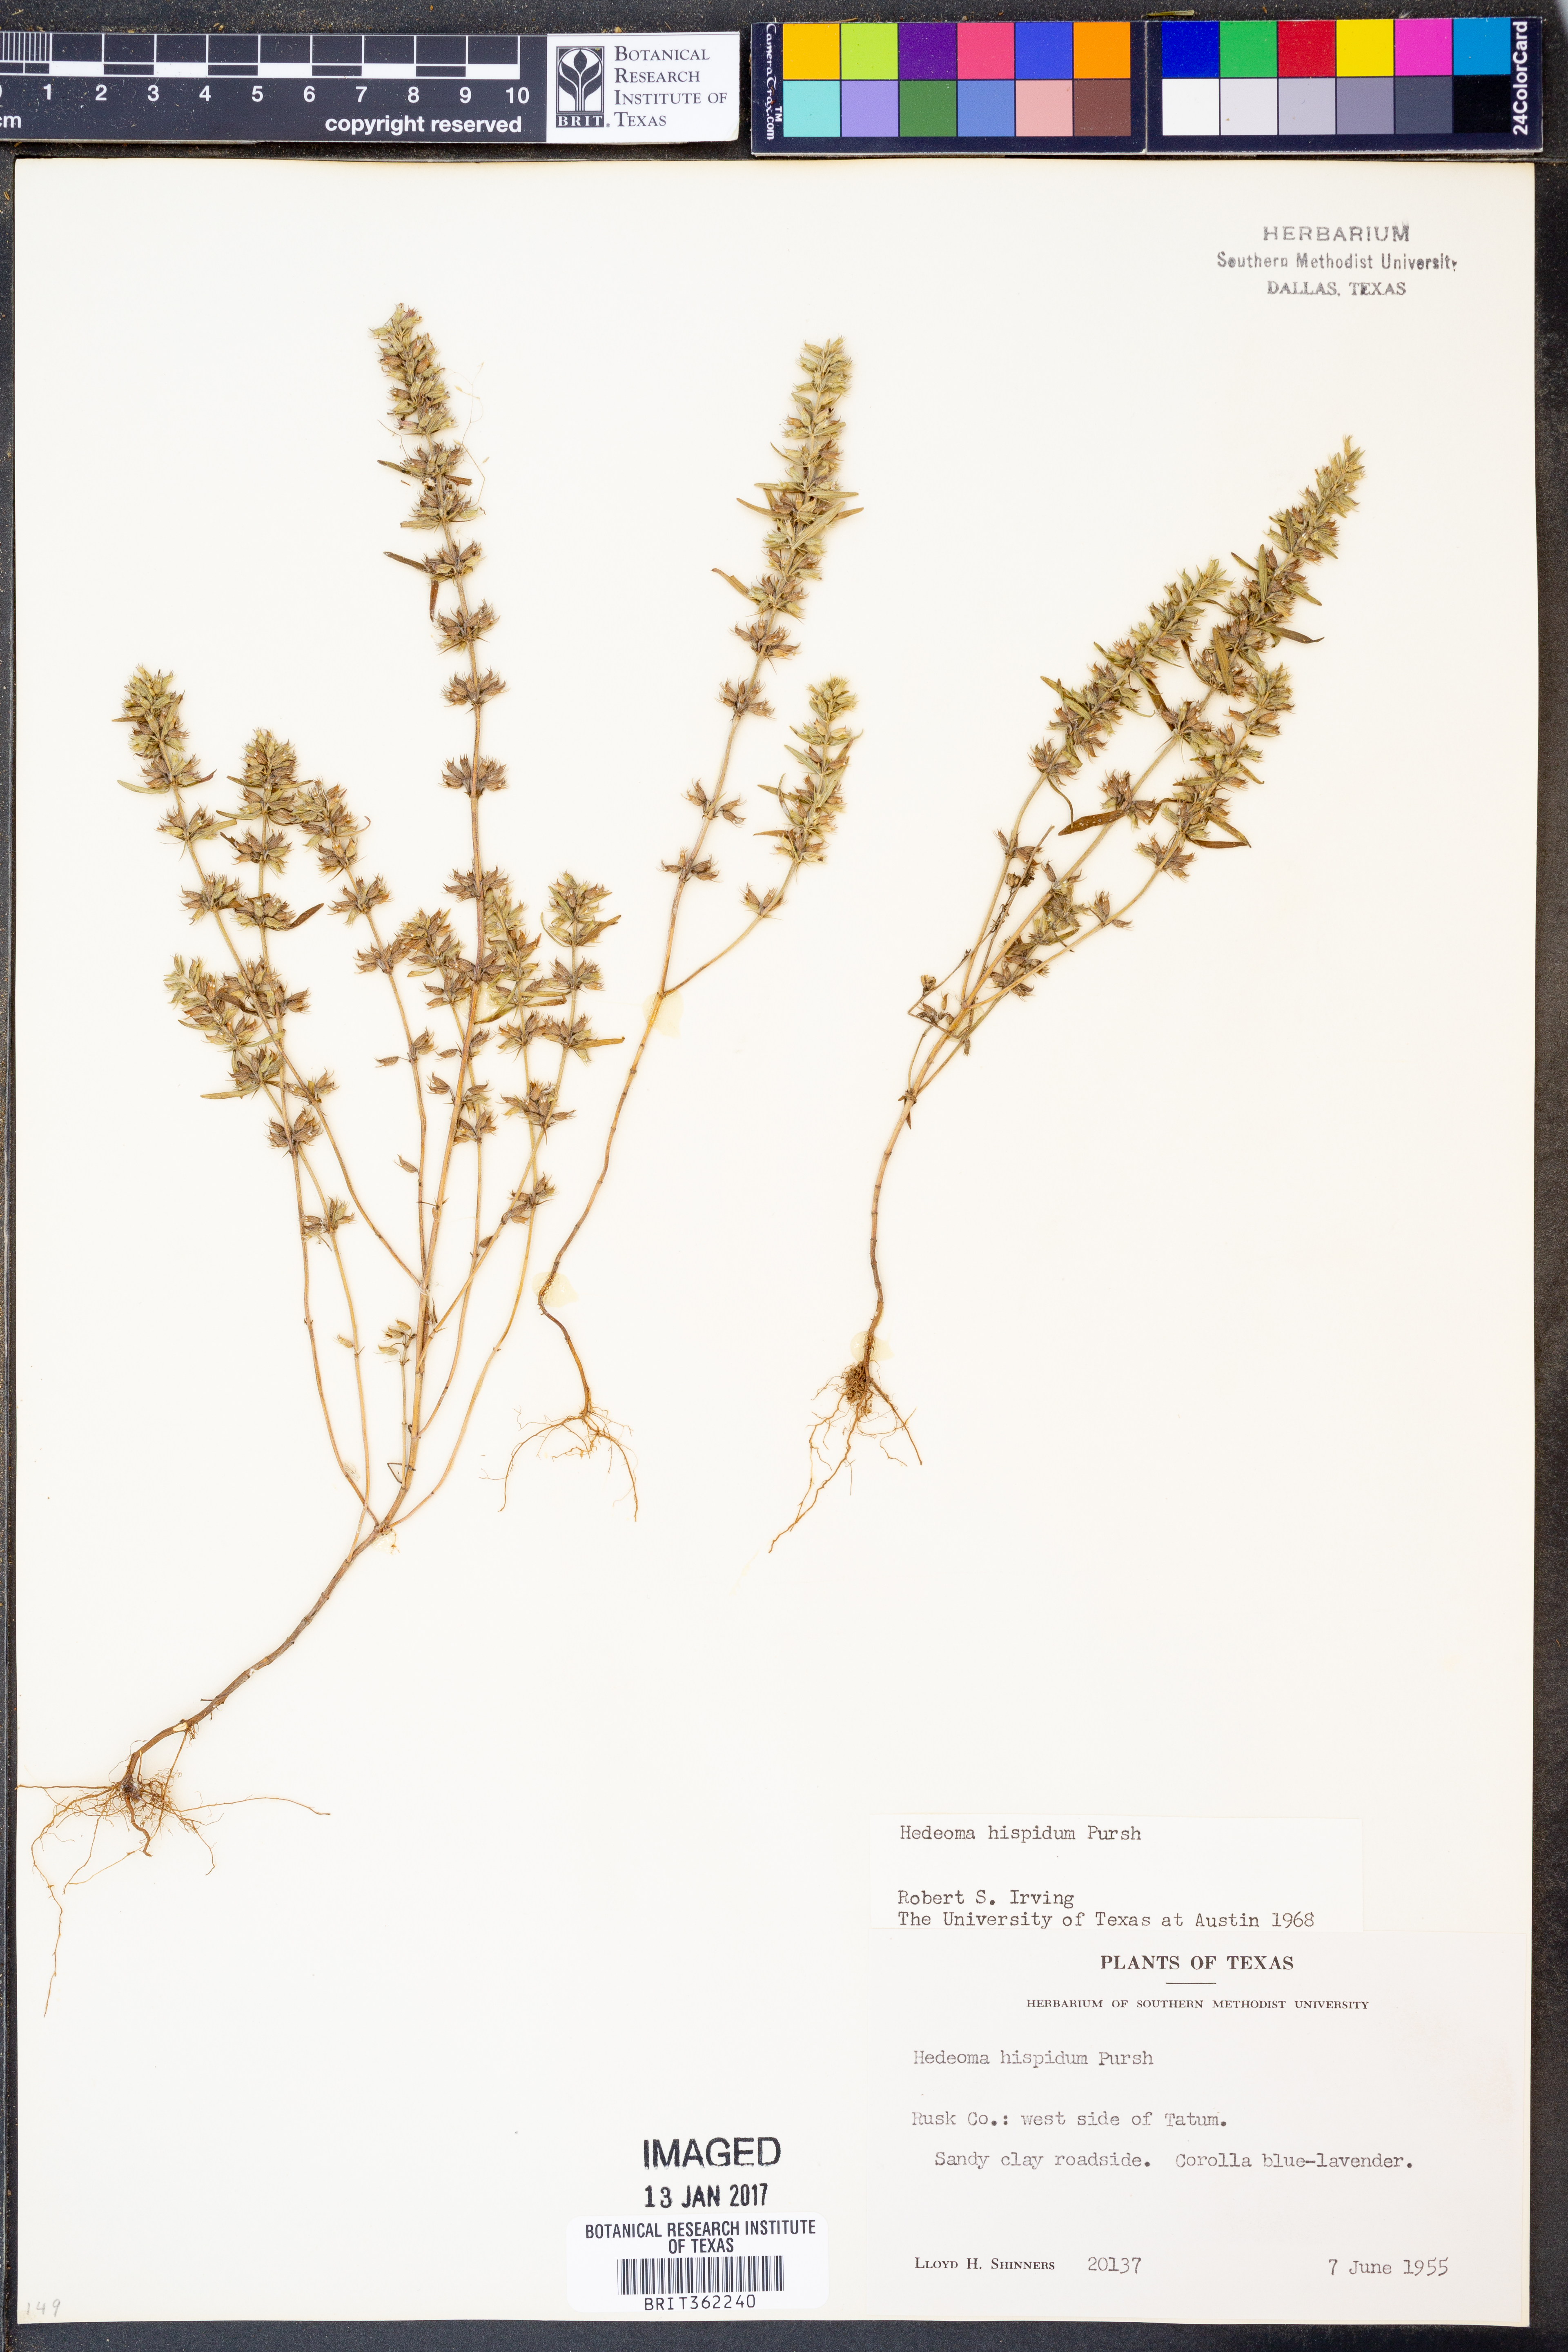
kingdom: Plantae
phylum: Tracheophyta
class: Magnoliopsida
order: Lamiales
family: Lamiaceae
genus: Hedeoma
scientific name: Hedeoma hispida
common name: Mock pennyroyal
